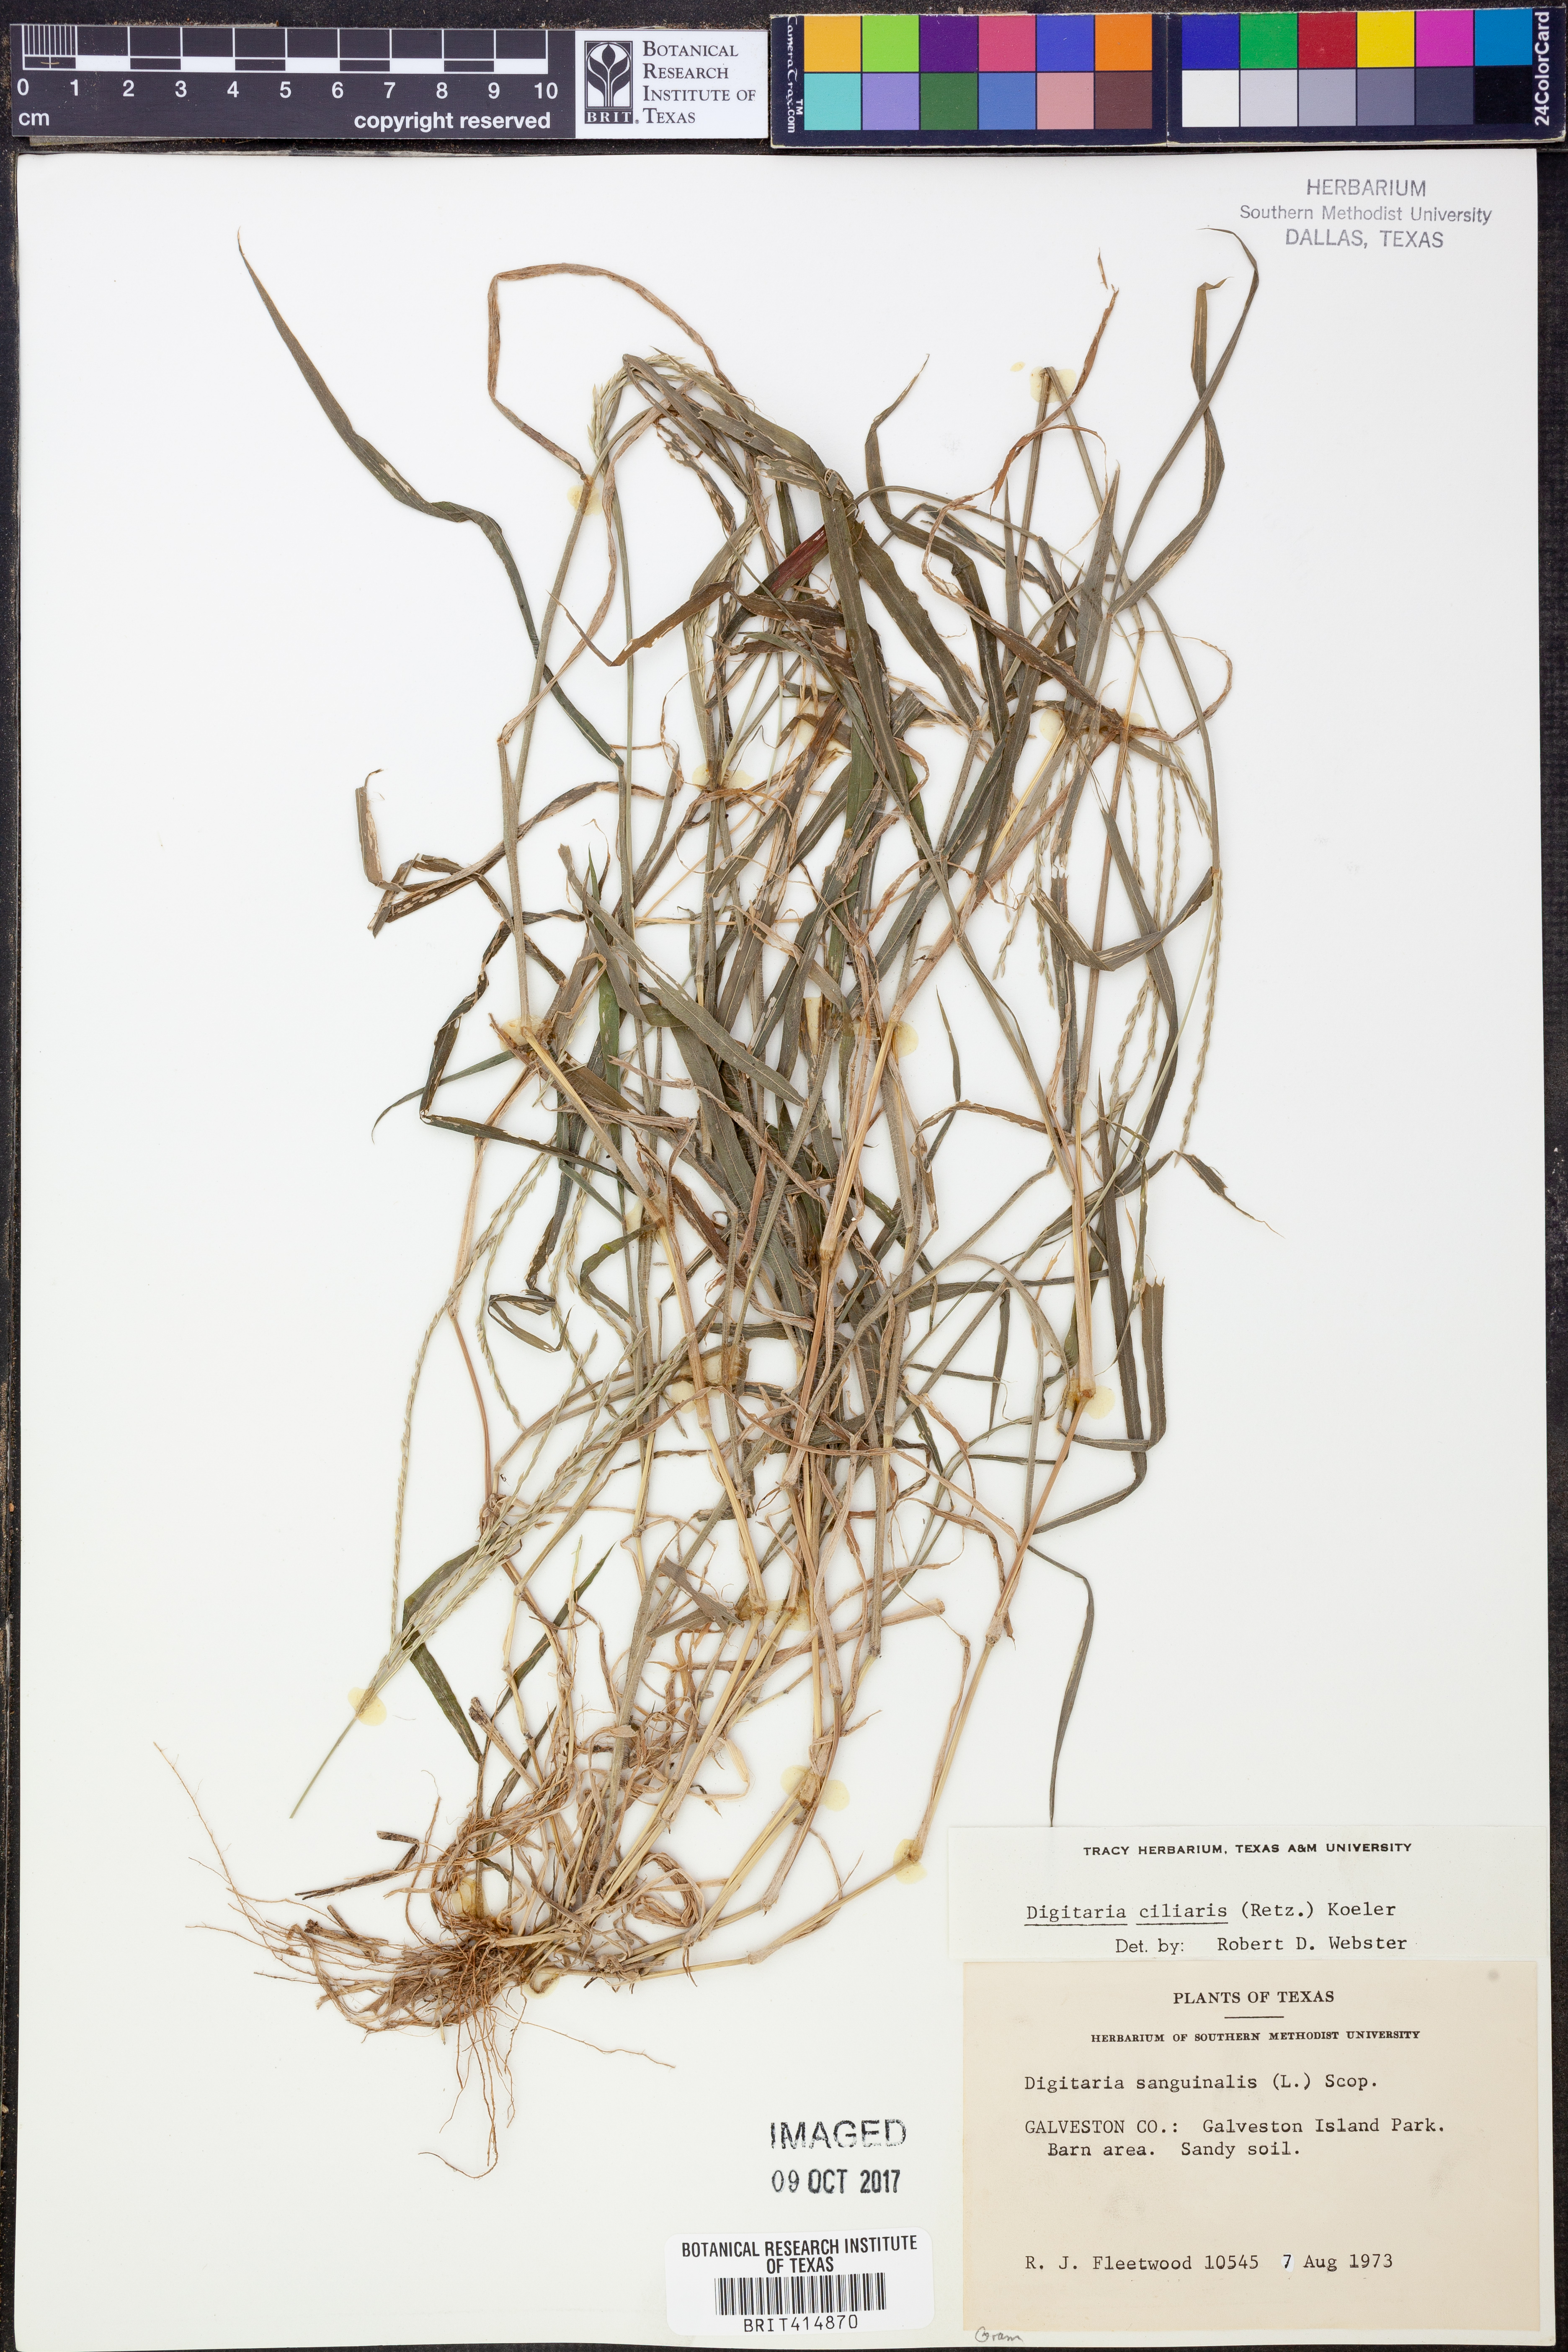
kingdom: Plantae
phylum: Tracheophyta
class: Liliopsida
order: Poales
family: Poaceae
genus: Digitaria
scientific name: Digitaria ciliaris
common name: Tropical finger-grass
